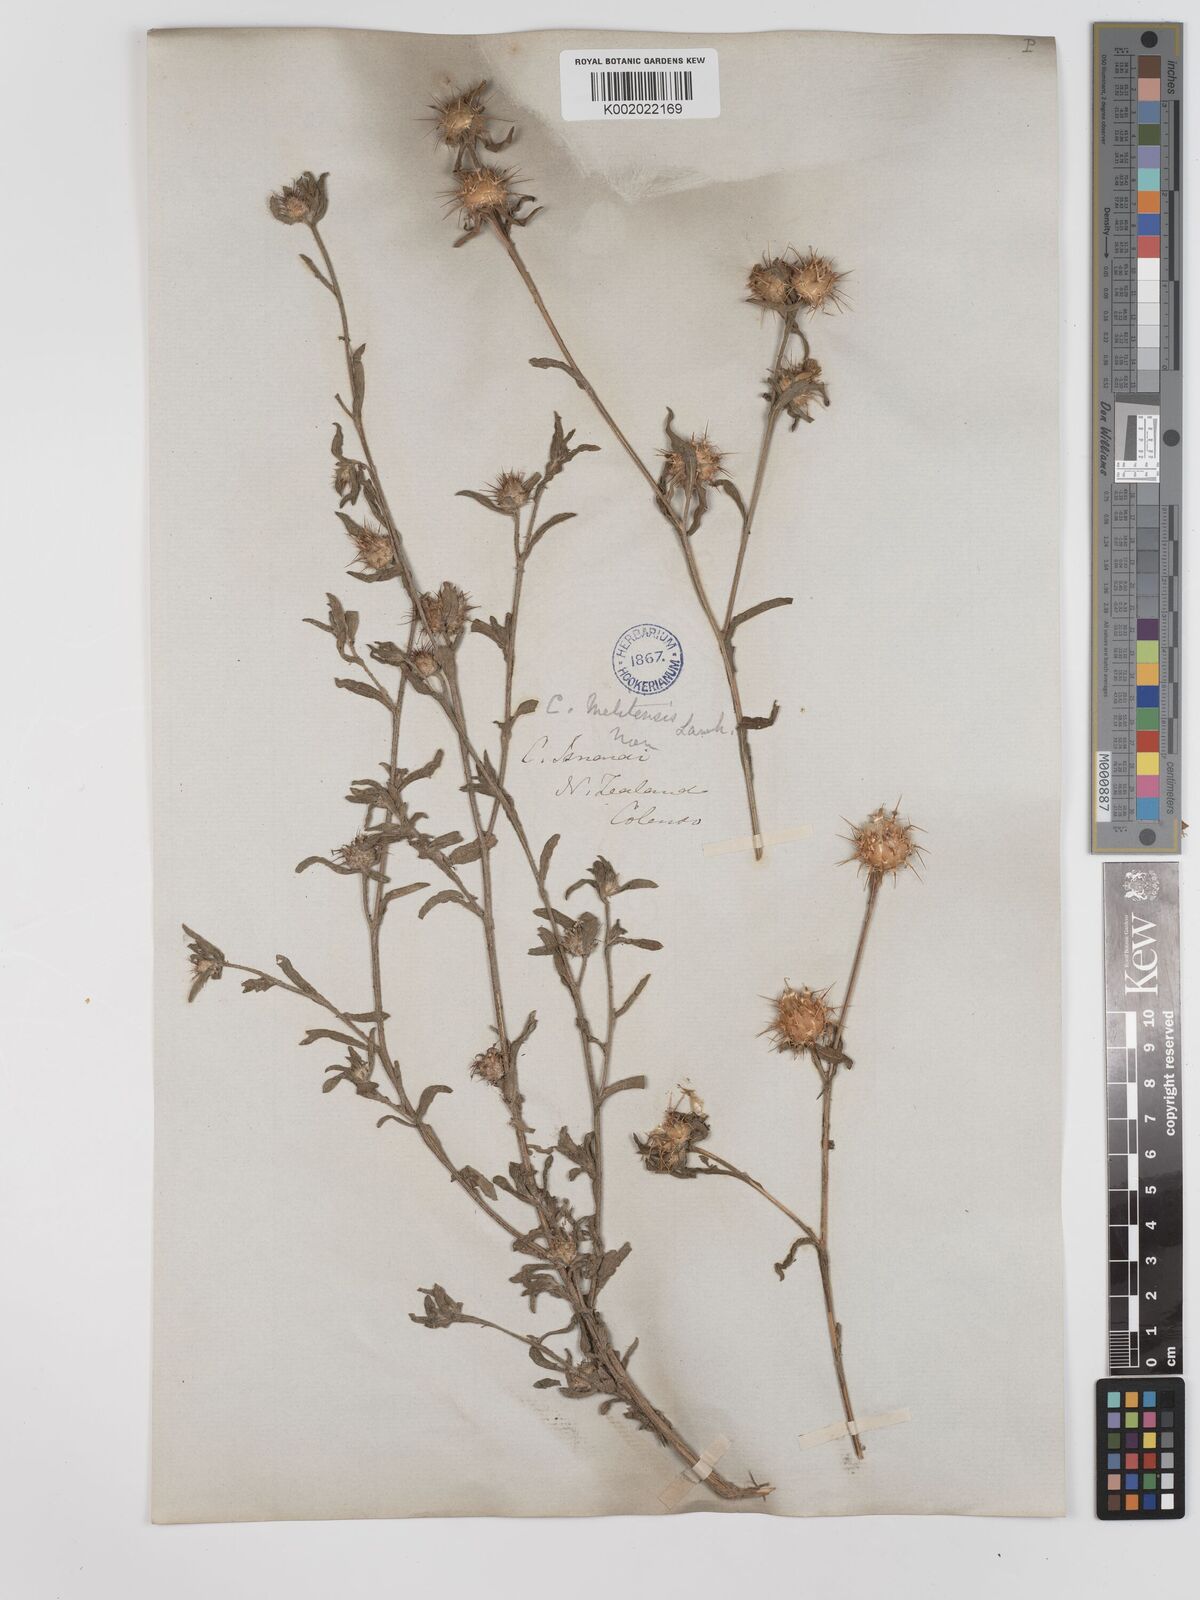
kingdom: Plantae
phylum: Tracheophyta
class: Magnoliopsida
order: Asterales
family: Asteraceae
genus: Centaurea
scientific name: Centaurea melitensis
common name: Maltese star-thistle
